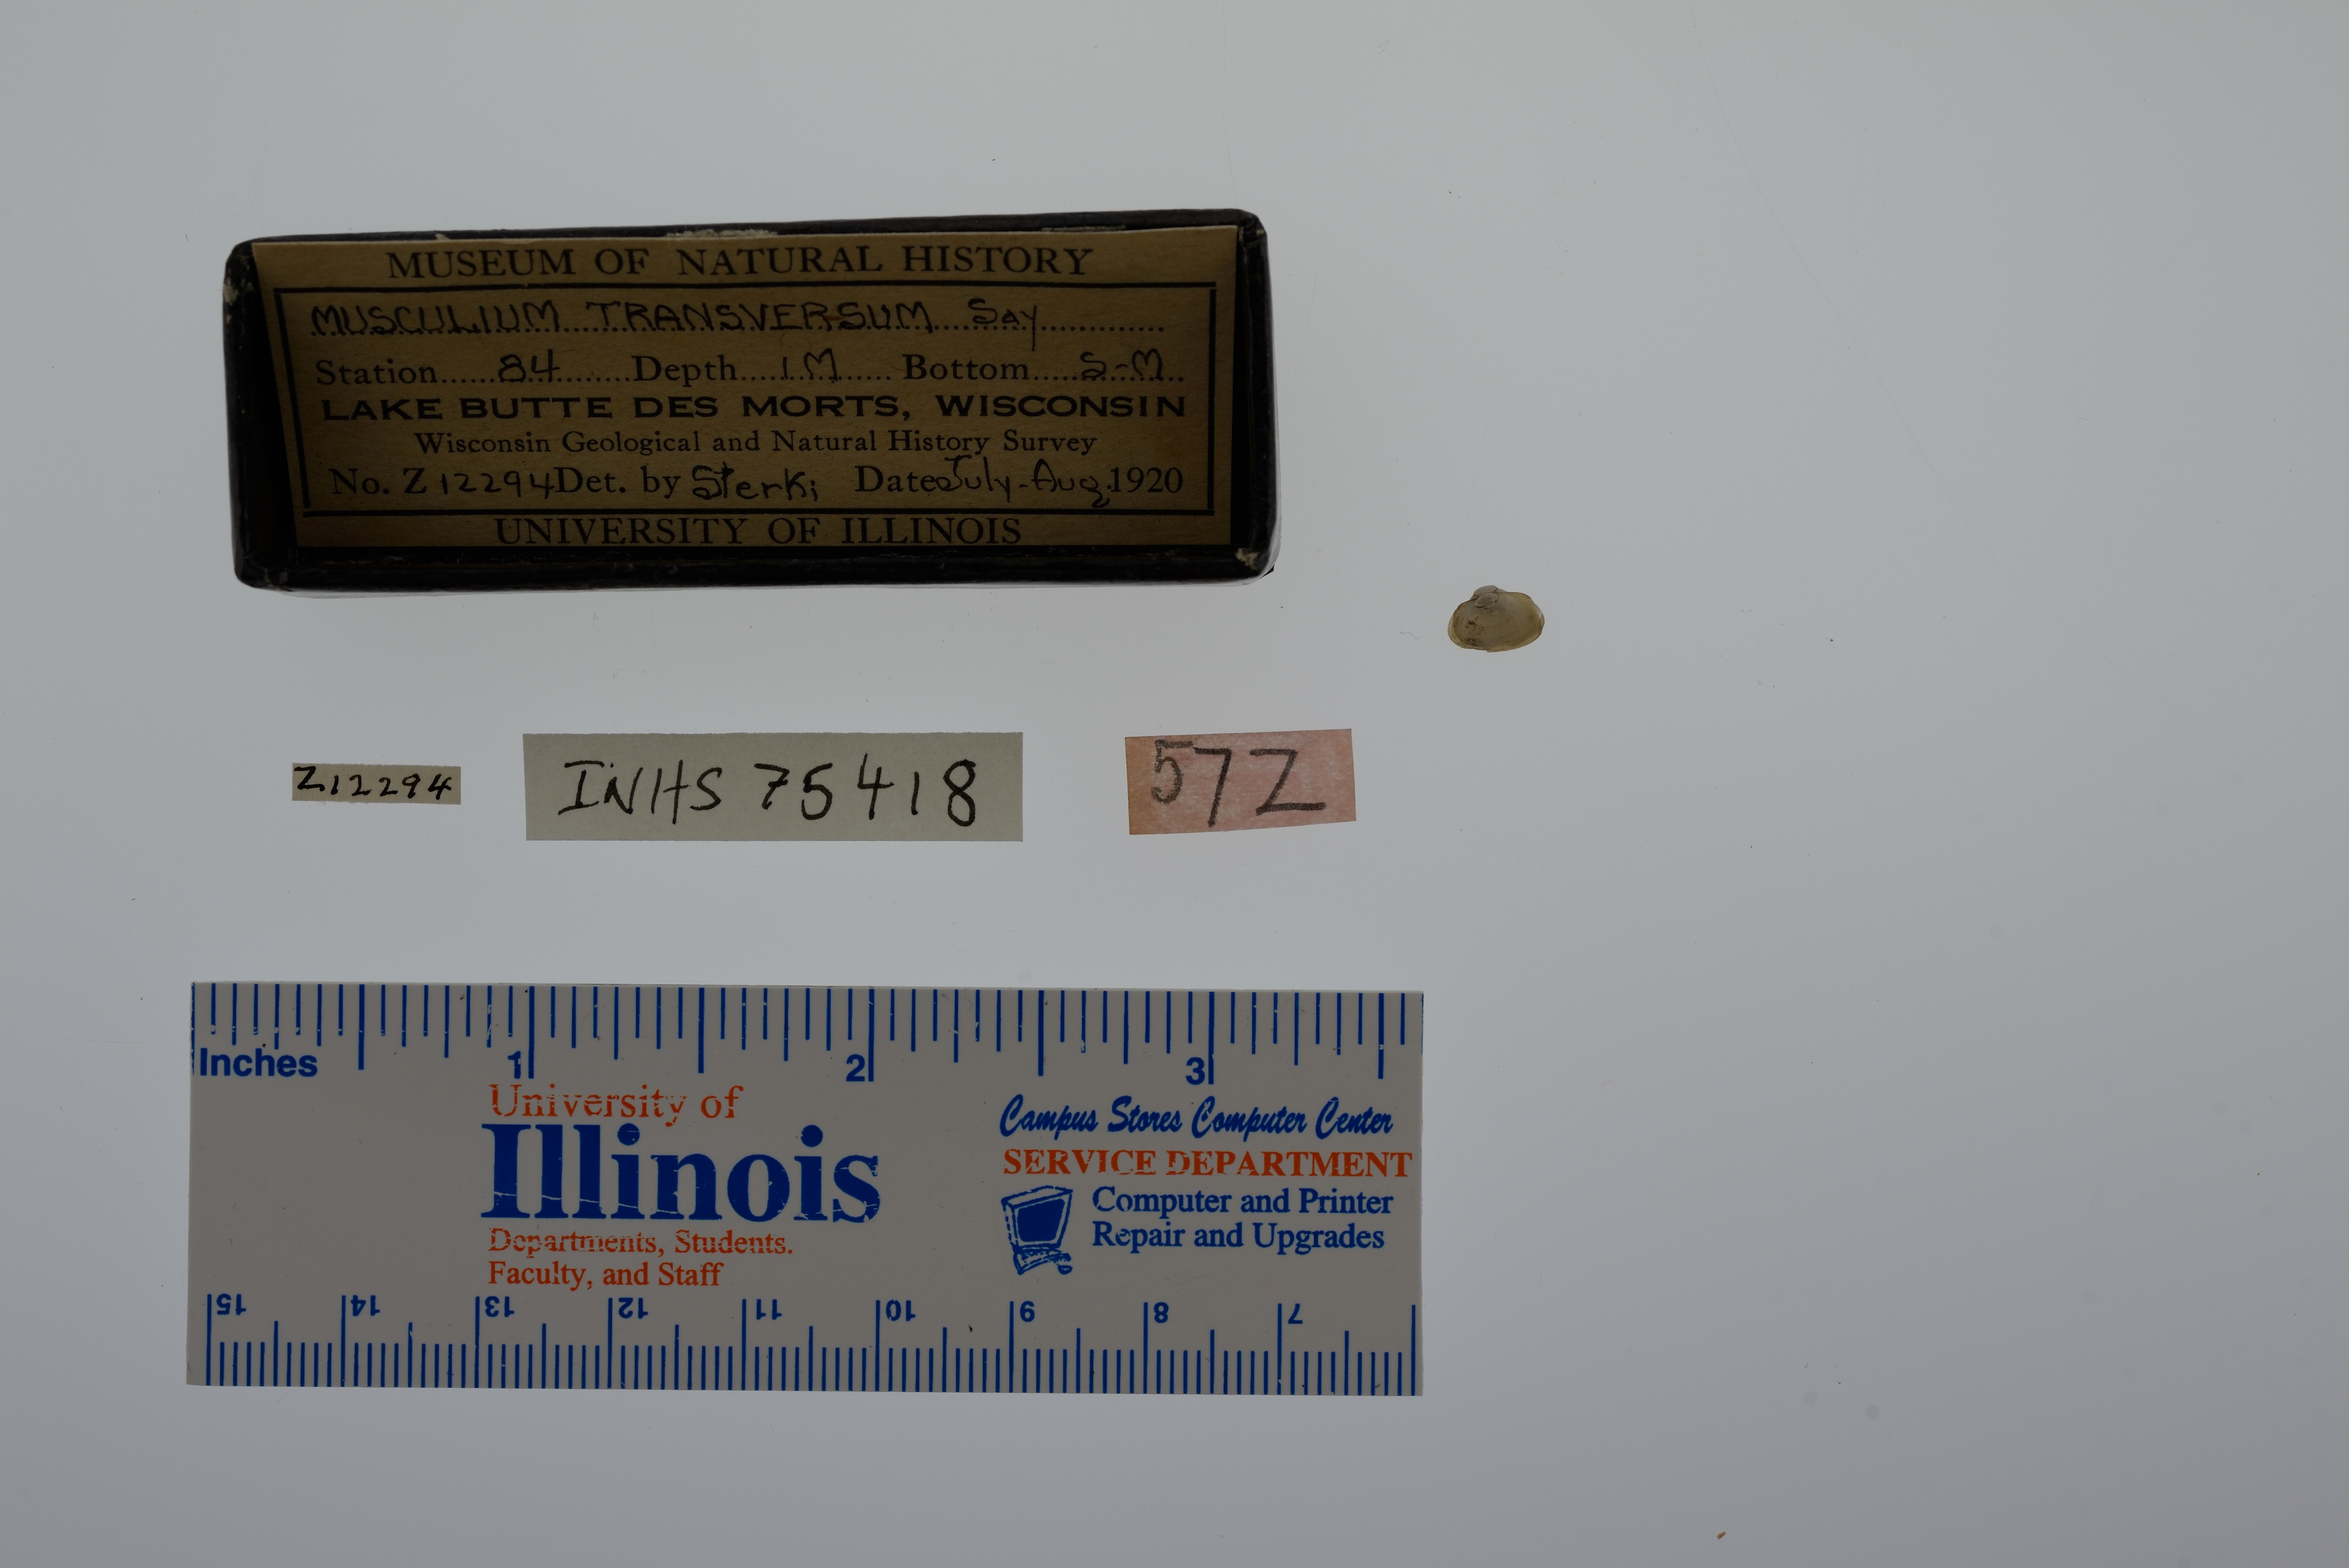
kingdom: Animalia
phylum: Mollusca
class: Bivalvia
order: Sphaeriida
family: Sphaeriidae
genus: Musculium
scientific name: Musculium transversum
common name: Oblong orb mussel
